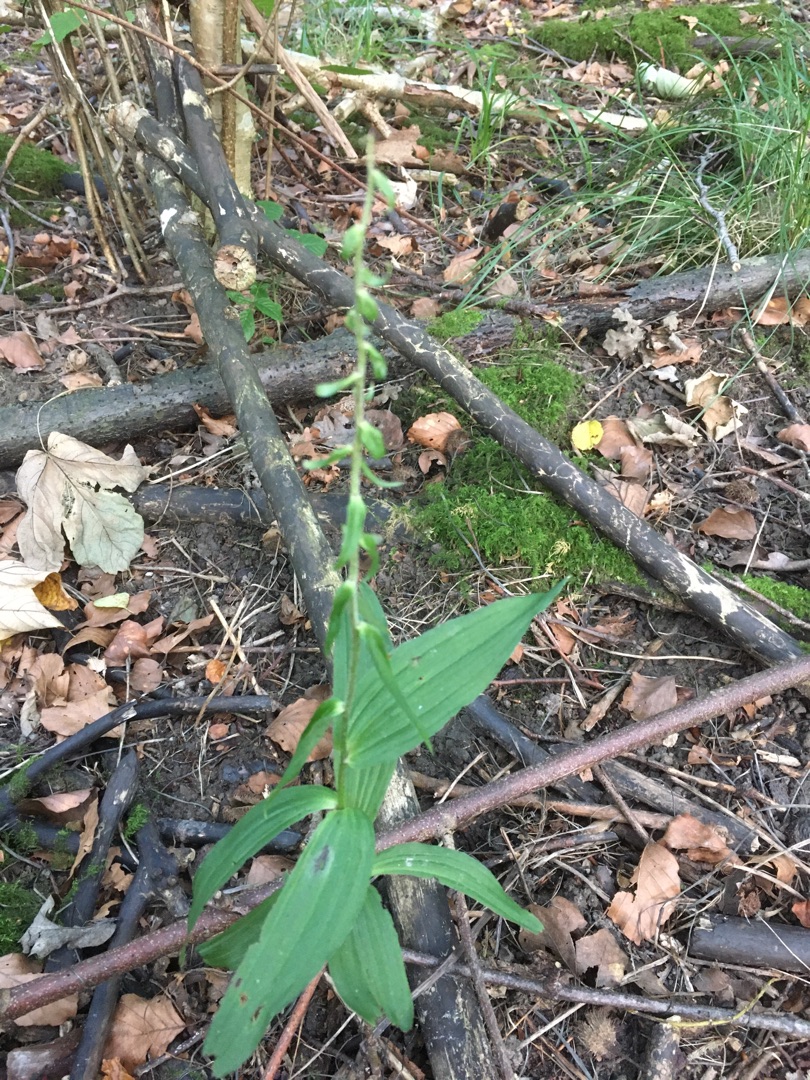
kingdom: Plantae
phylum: Tracheophyta
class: Liliopsida
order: Asparagales
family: Orchidaceae
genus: Epipactis
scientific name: Epipactis helleborine
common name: Skov-hullæbe
